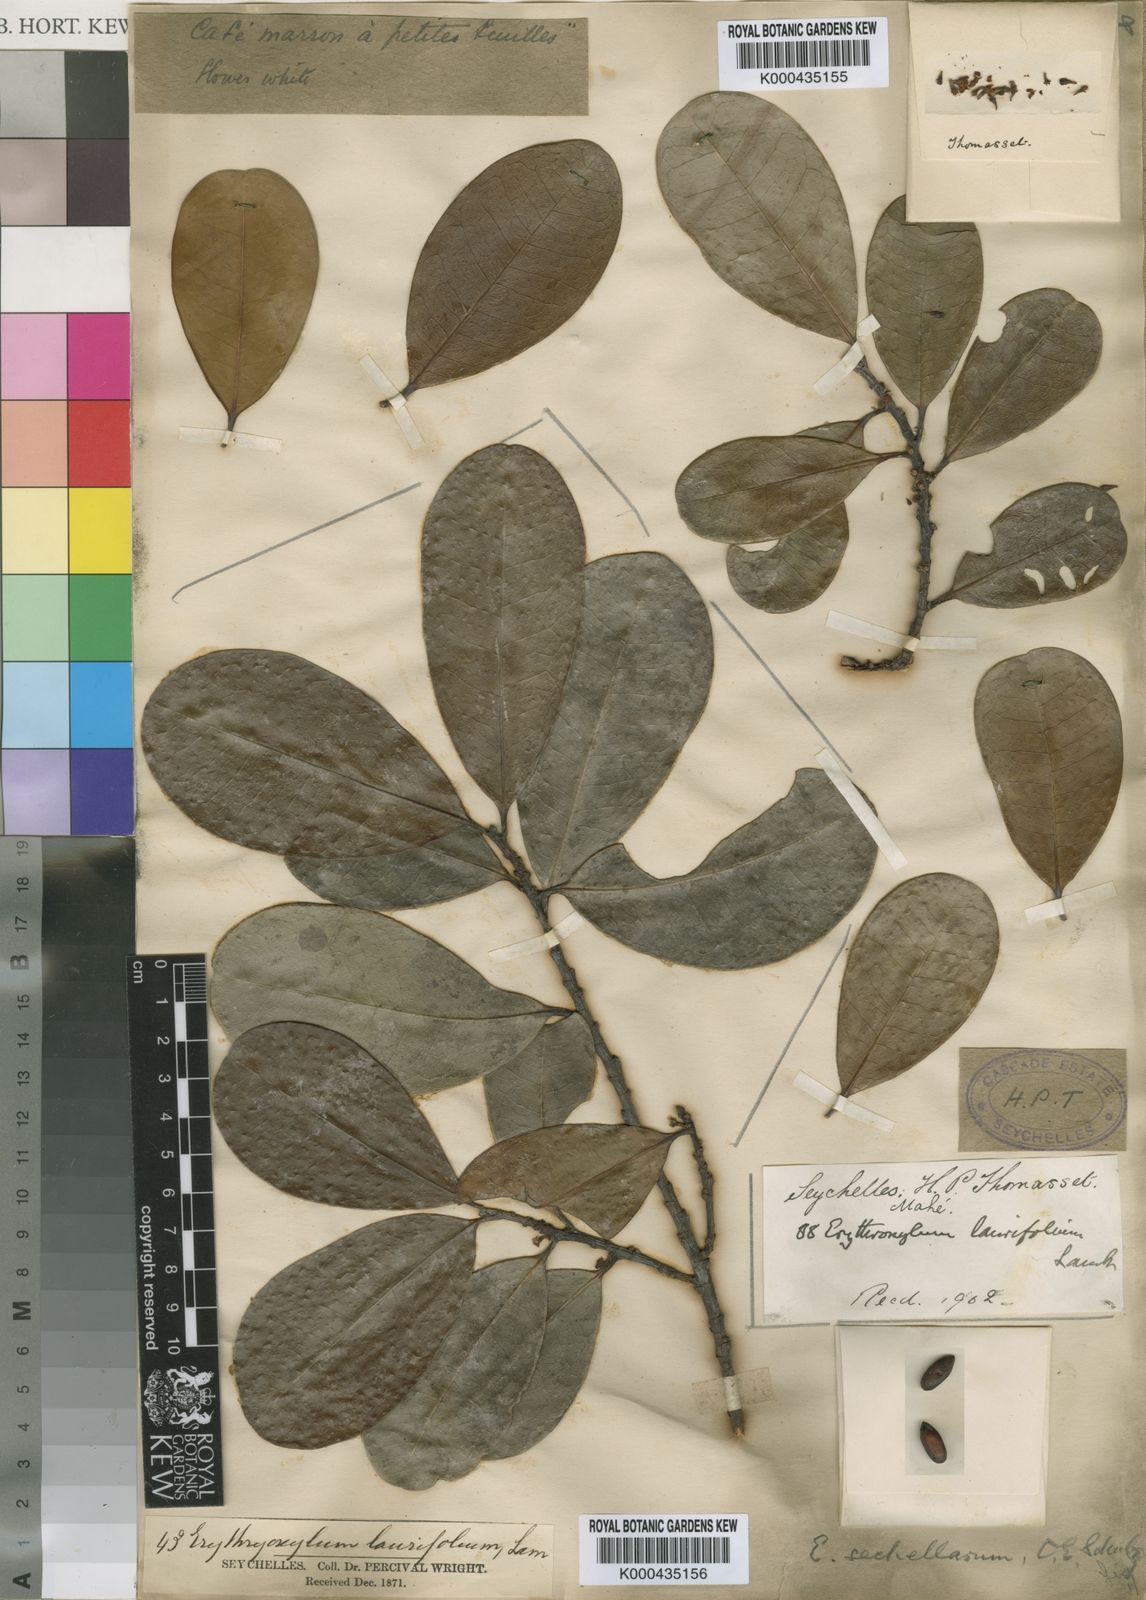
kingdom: Plantae
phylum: Tracheophyta
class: Magnoliopsida
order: Malpighiales
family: Erythroxylaceae
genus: Erythroxylum
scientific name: Erythroxylum sechellarum
